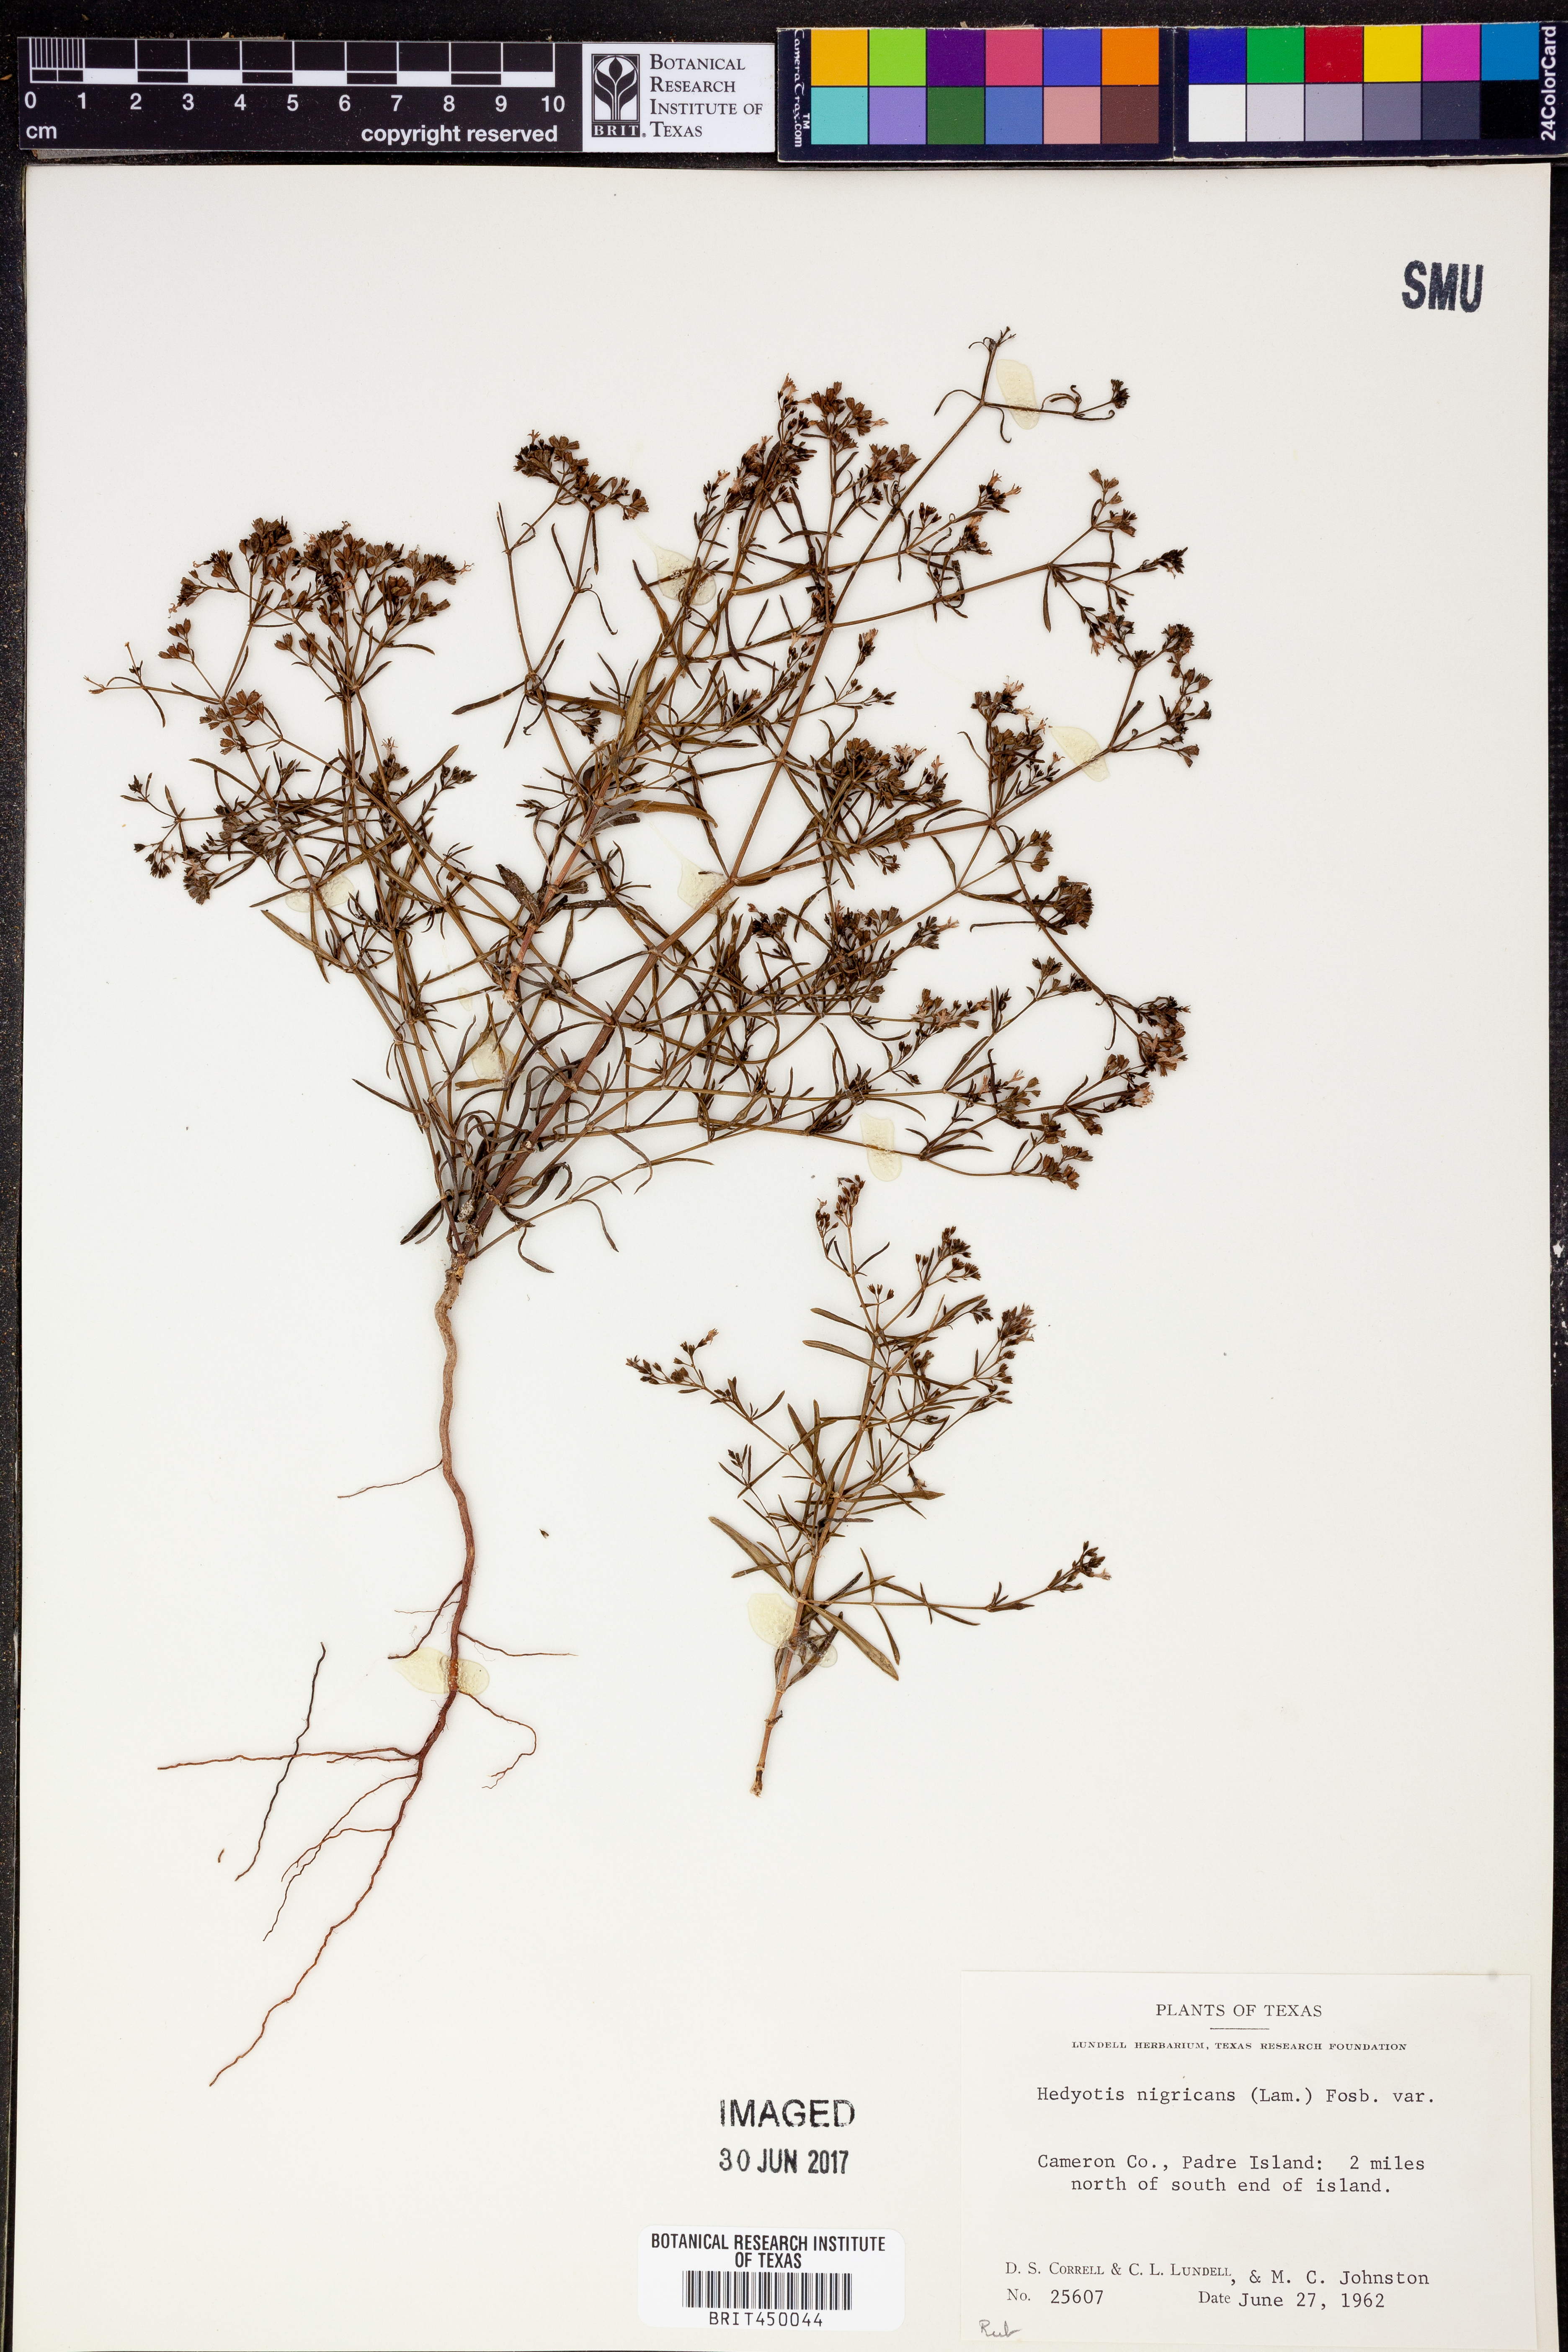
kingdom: Plantae
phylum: Tracheophyta
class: Magnoliopsida
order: Gentianales
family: Rubiaceae
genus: Stenaria
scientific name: Stenaria nigricans
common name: Diamondflowers
